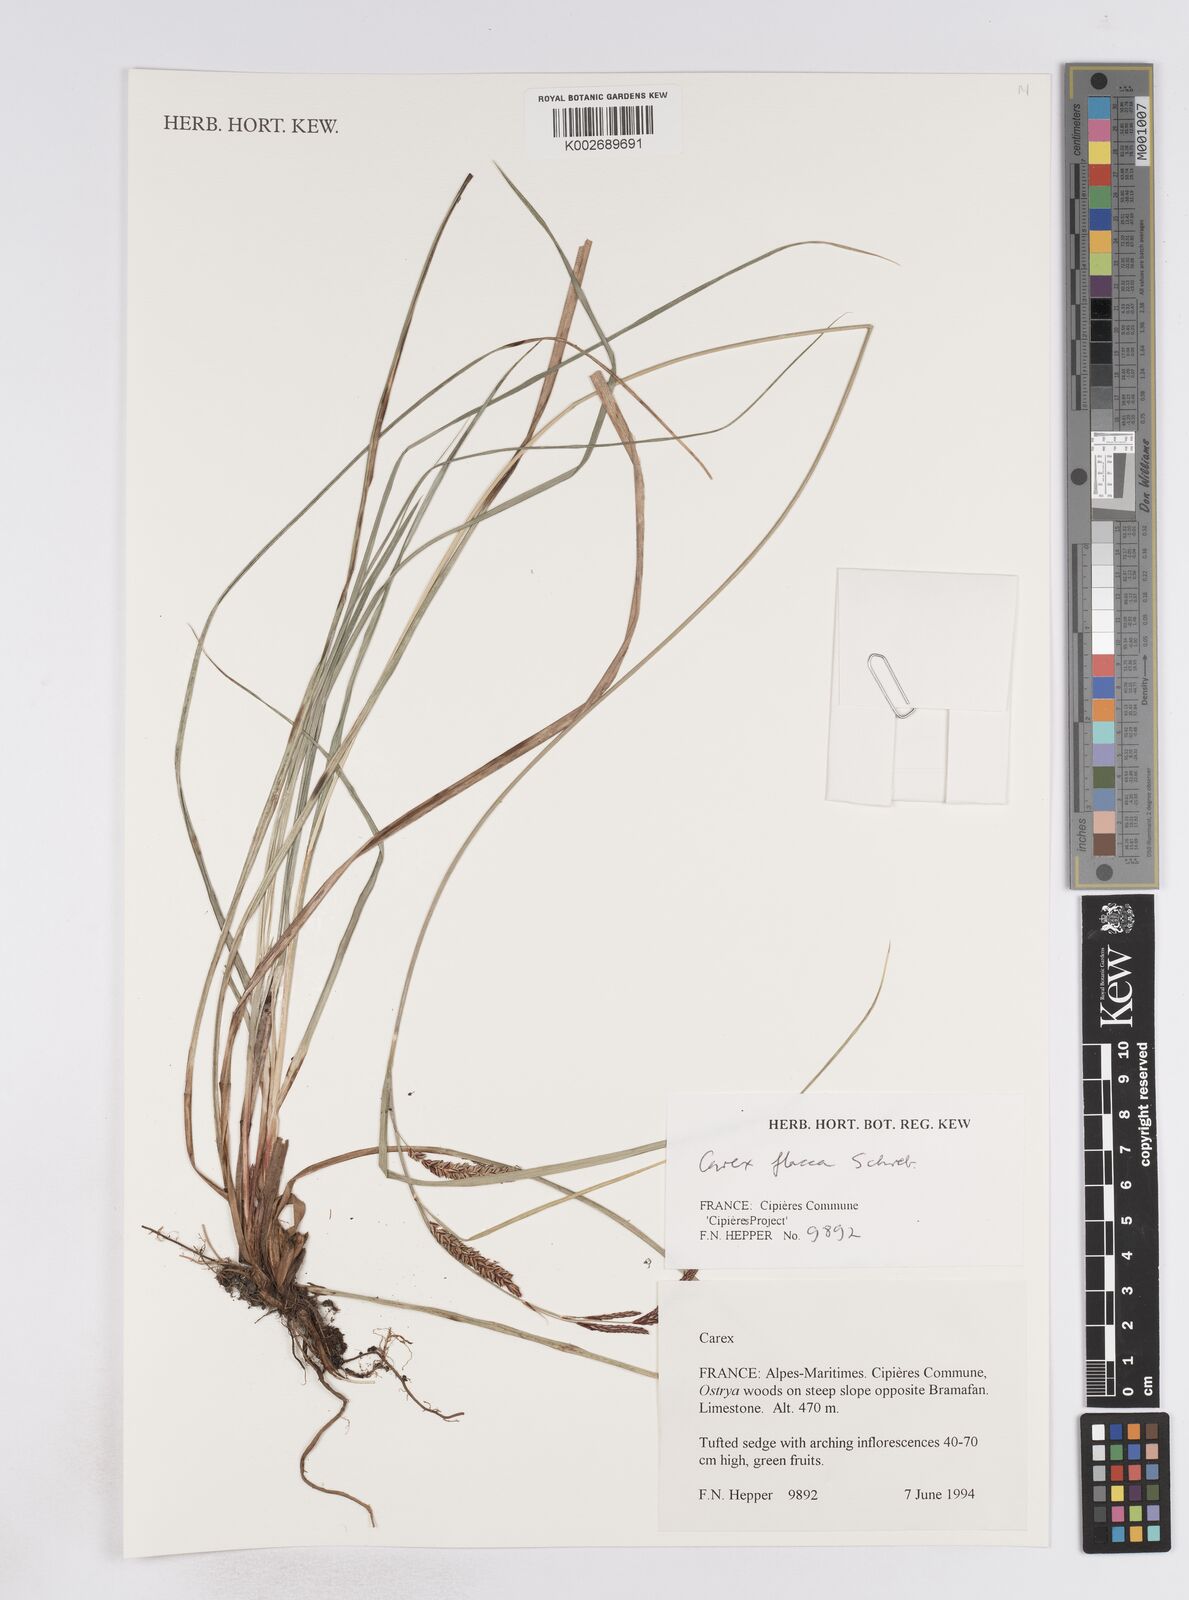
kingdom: Plantae
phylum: Tracheophyta
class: Liliopsida
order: Poales
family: Cyperaceae
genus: Carex
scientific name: Carex flacca
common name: Glaucous sedge
